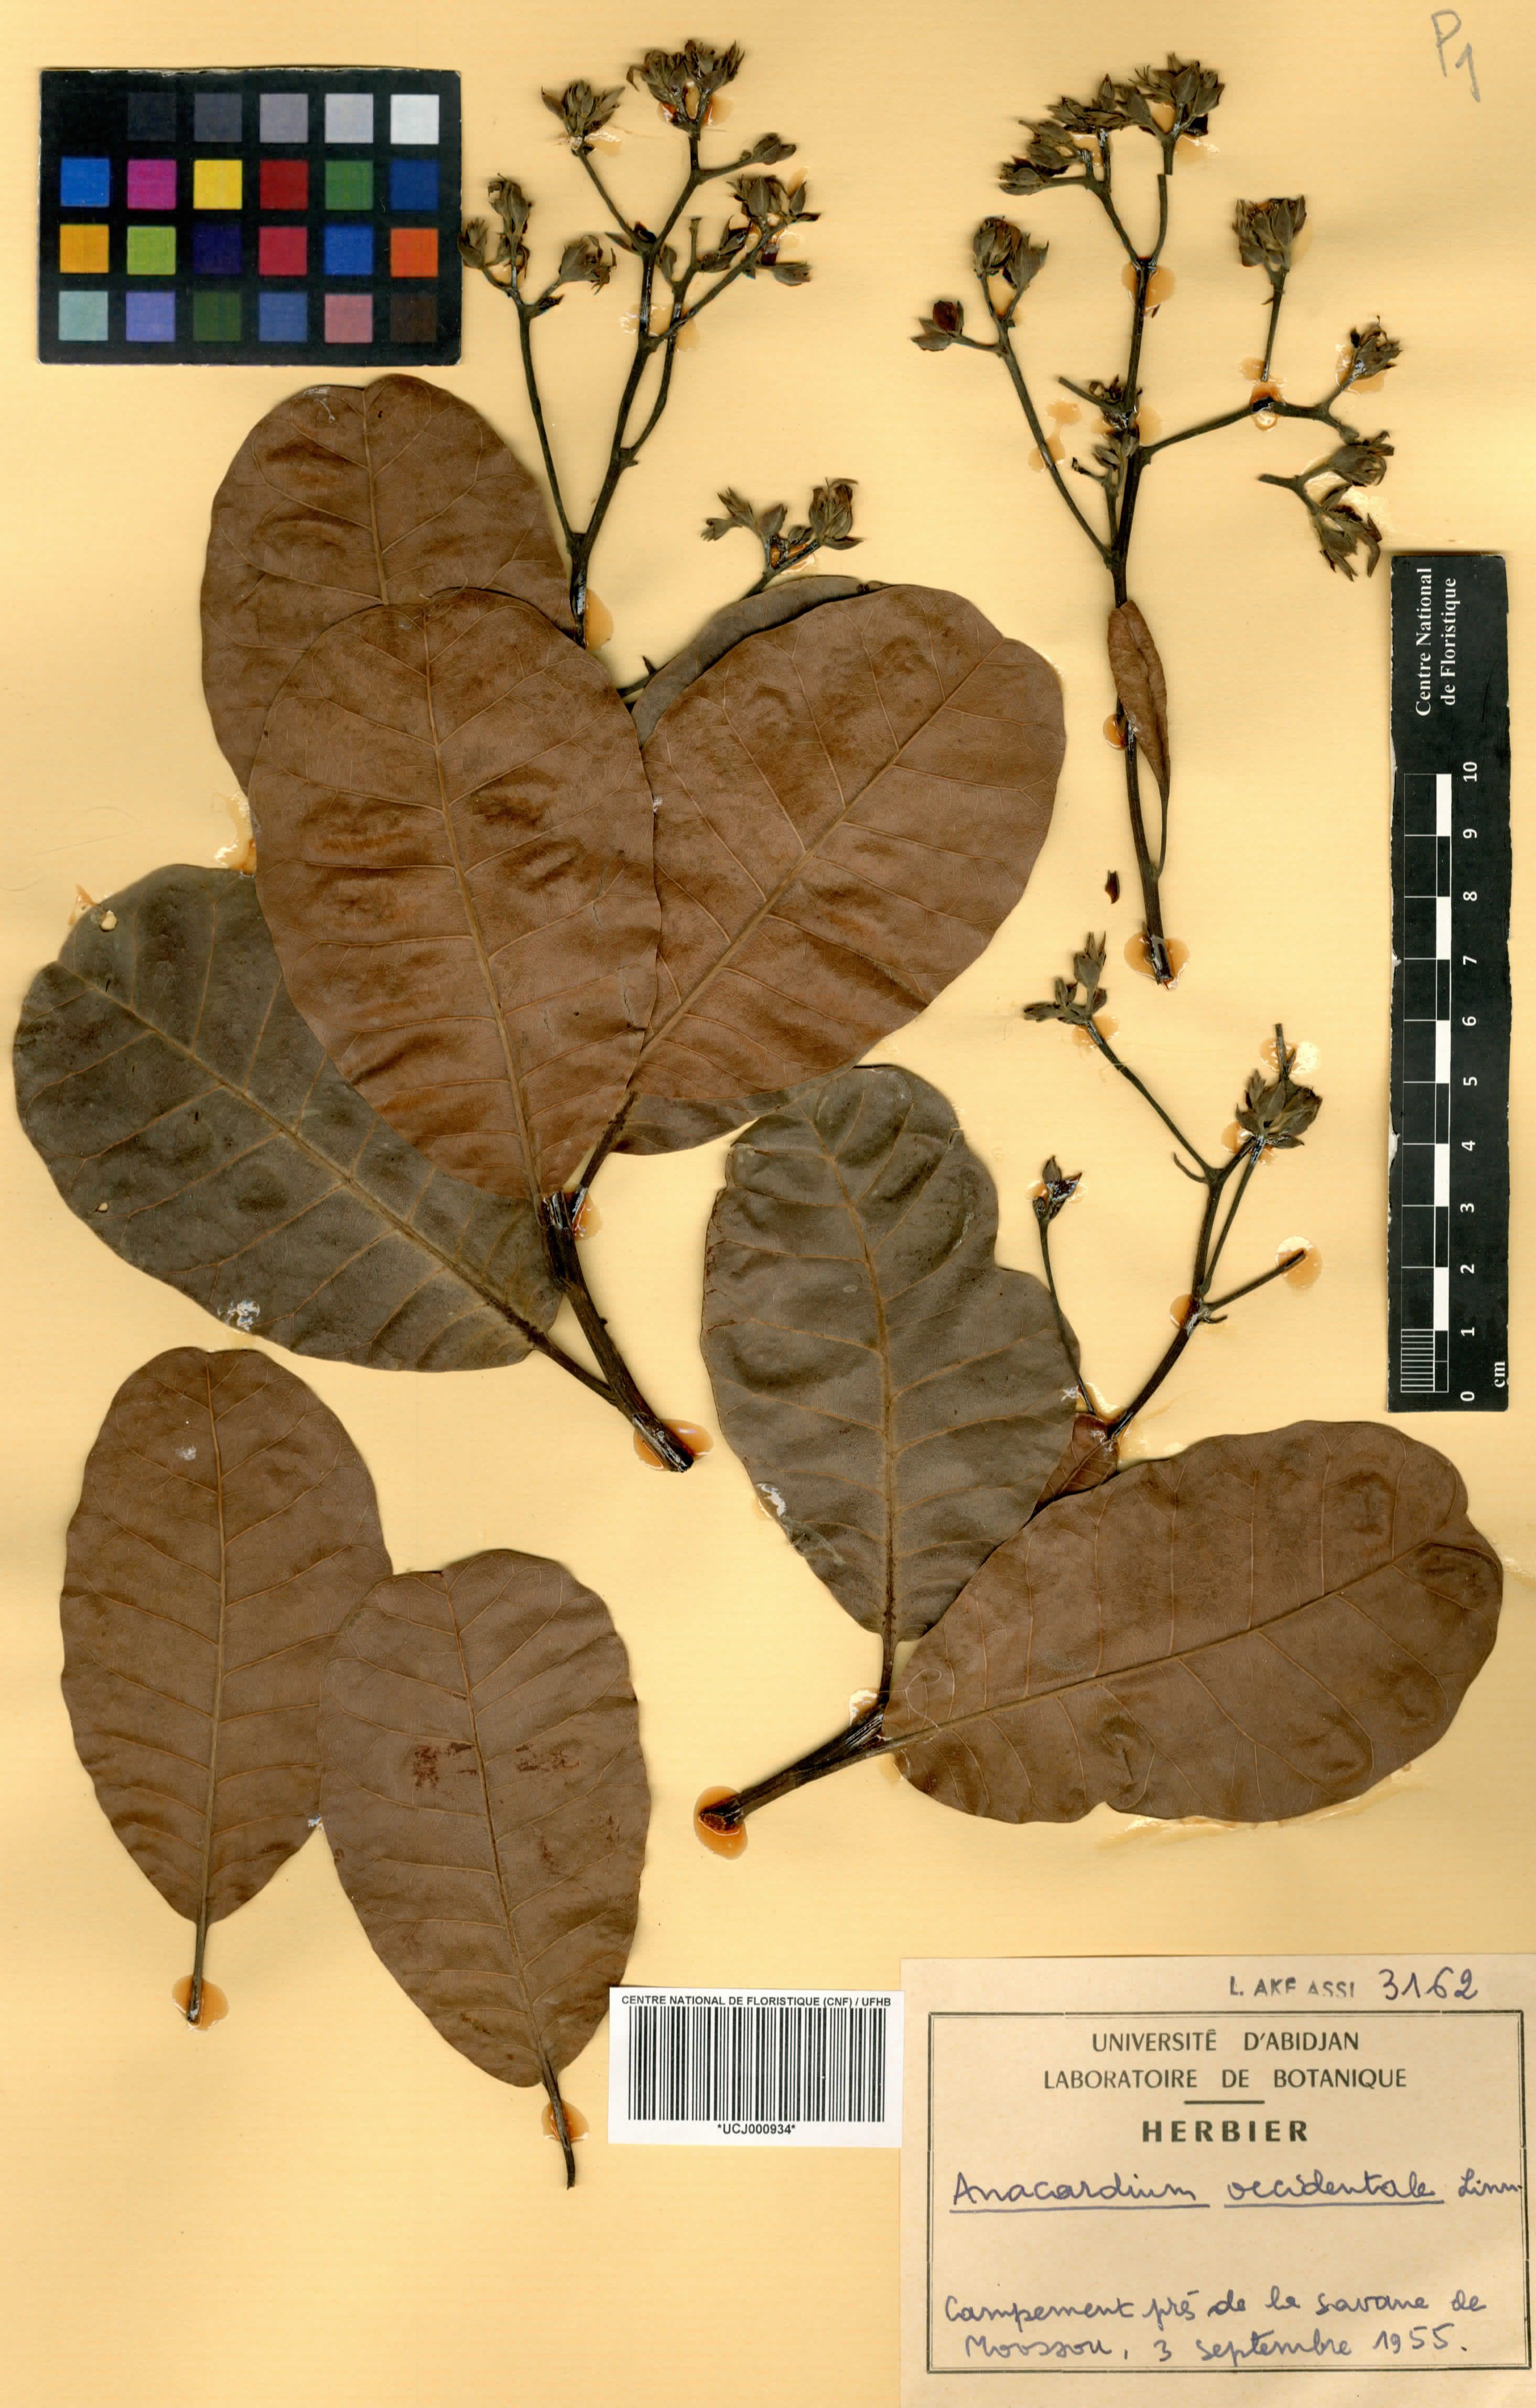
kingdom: Plantae
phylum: Tracheophyta
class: Magnoliopsida
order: Sapindales
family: Anacardiaceae
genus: Anacardium
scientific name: Anacardium occidentale
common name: Cashew
